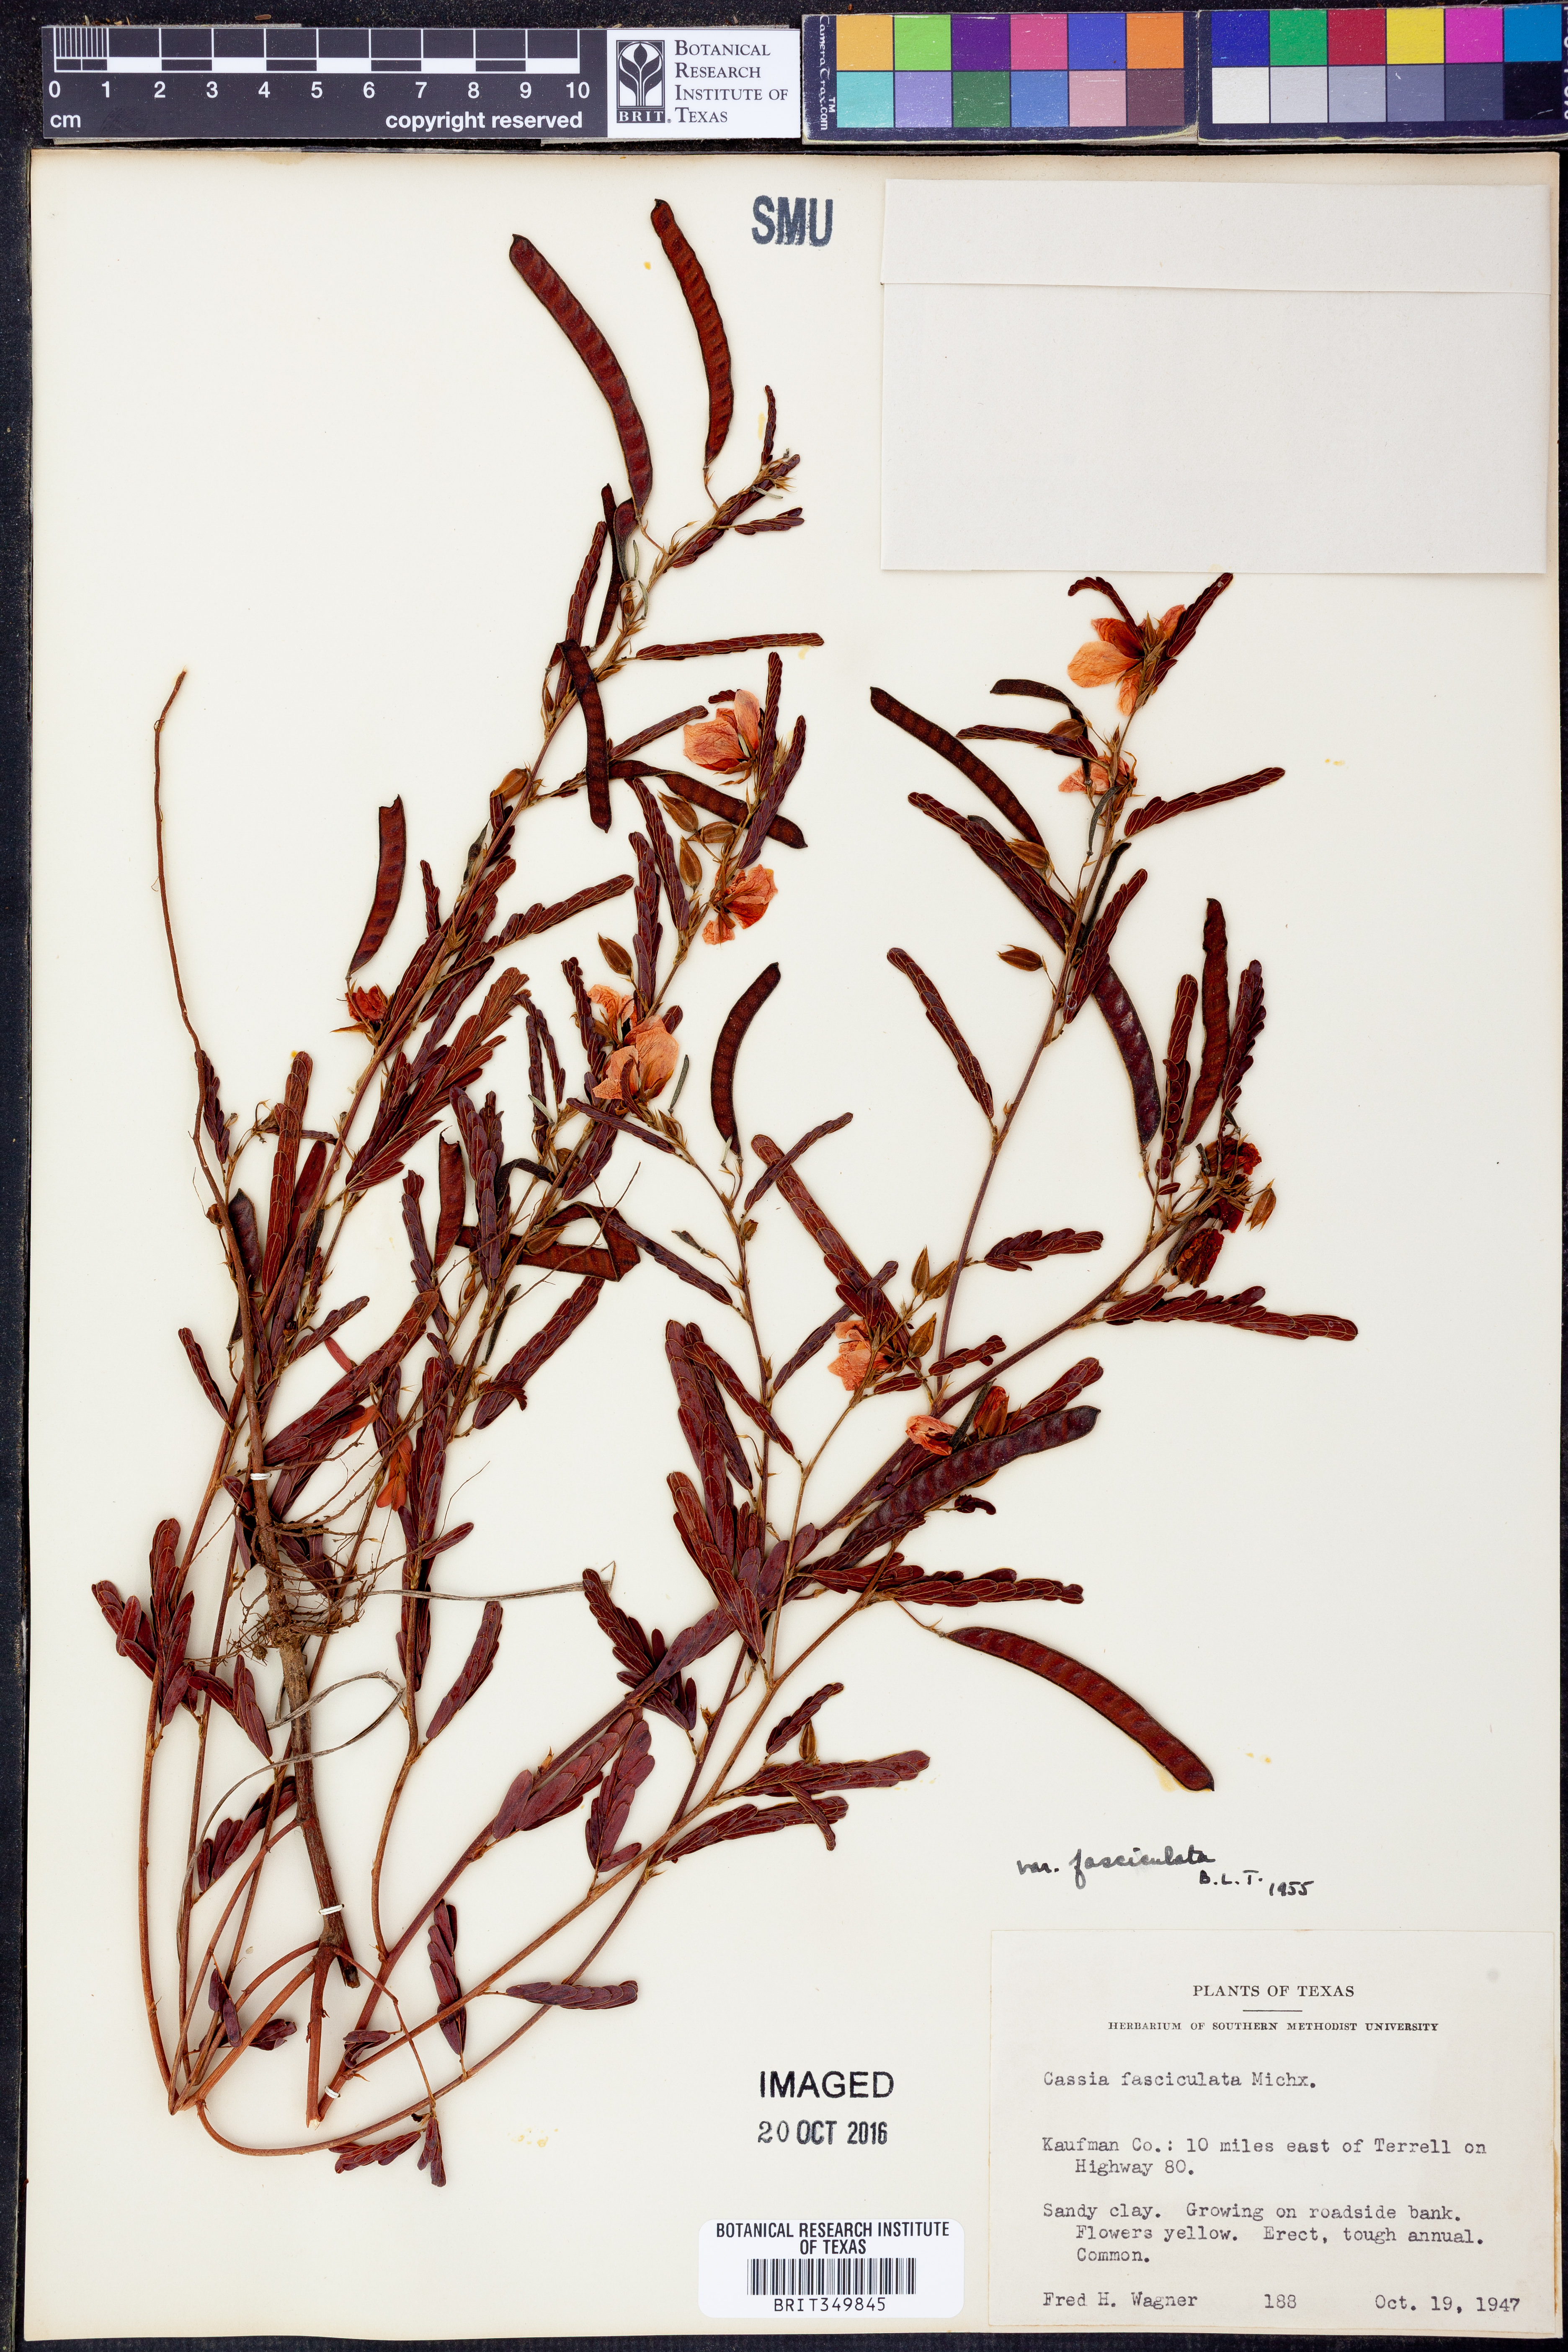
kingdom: Plantae
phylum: Tracheophyta
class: Magnoliopsida
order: Fabales
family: Fabaceae
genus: Chamaecrista
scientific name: Chamaecrista fasciculata
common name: Golden cassia
